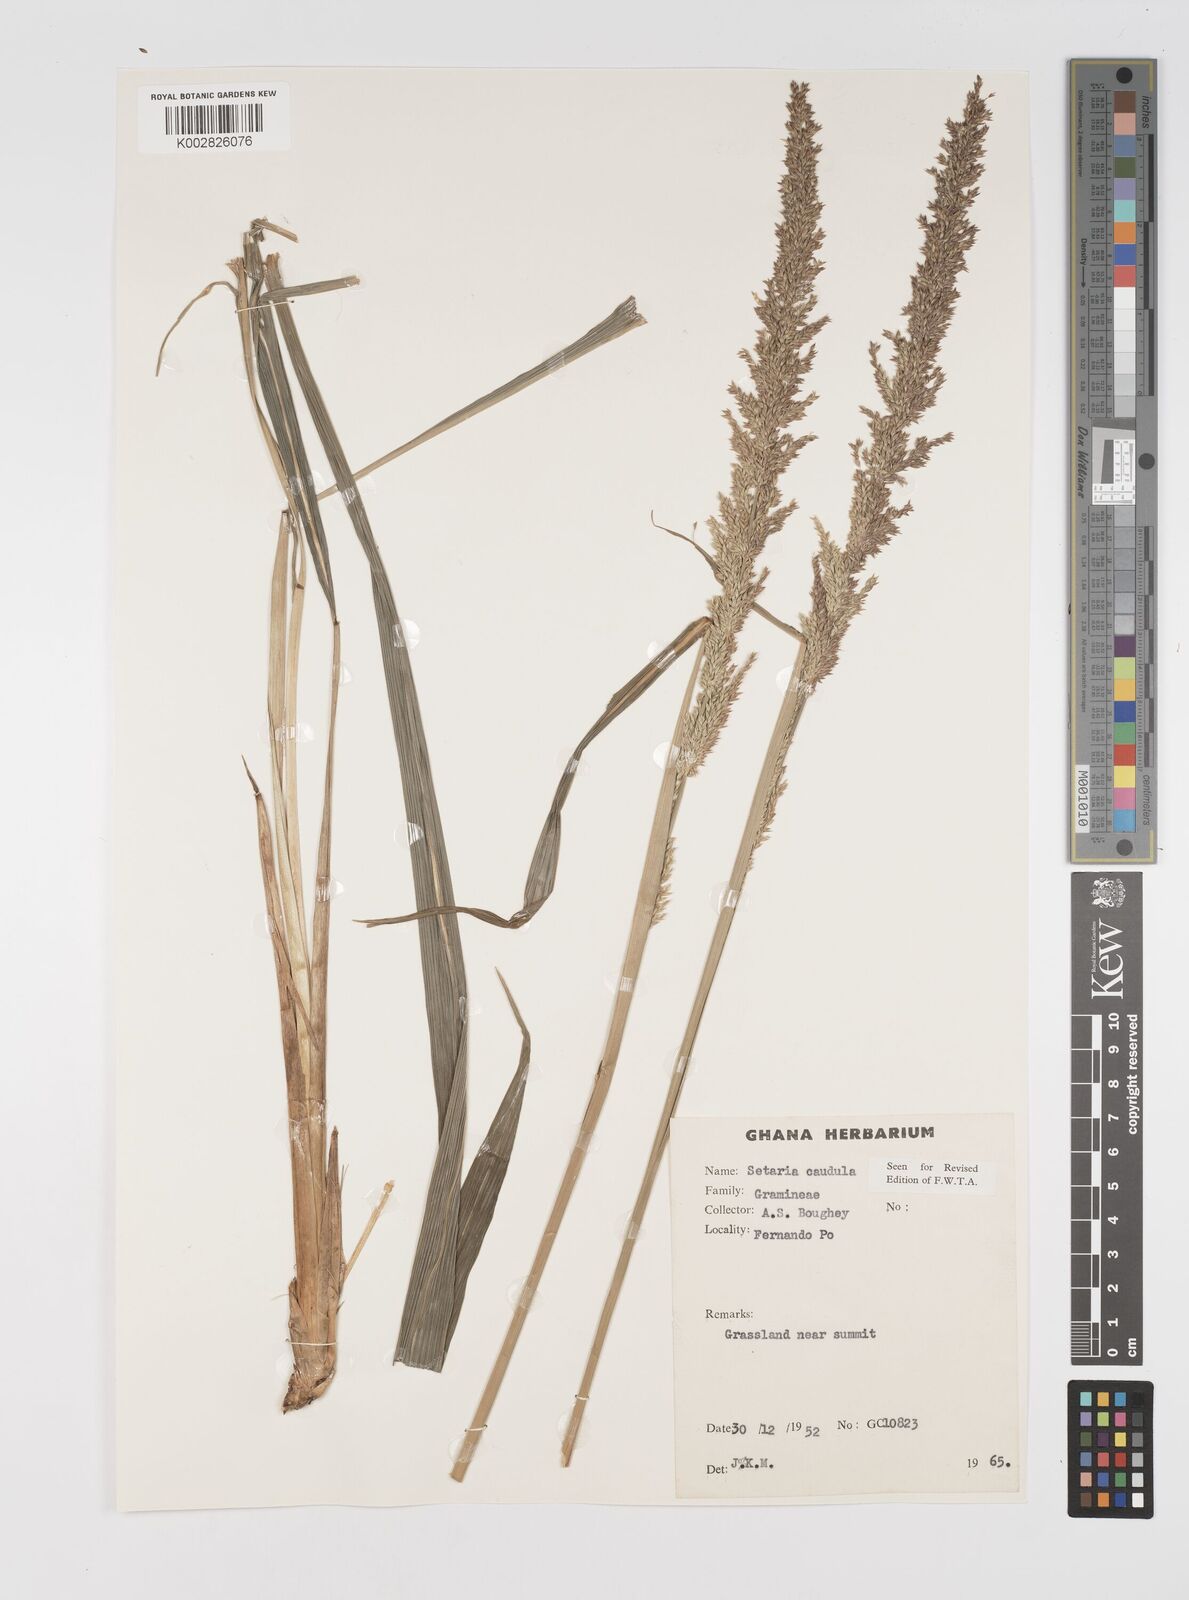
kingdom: Plantae
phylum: Tracheophyta
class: Liliopsida
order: Poales
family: Poaceae
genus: Setaria
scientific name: Setaria poiretiana
